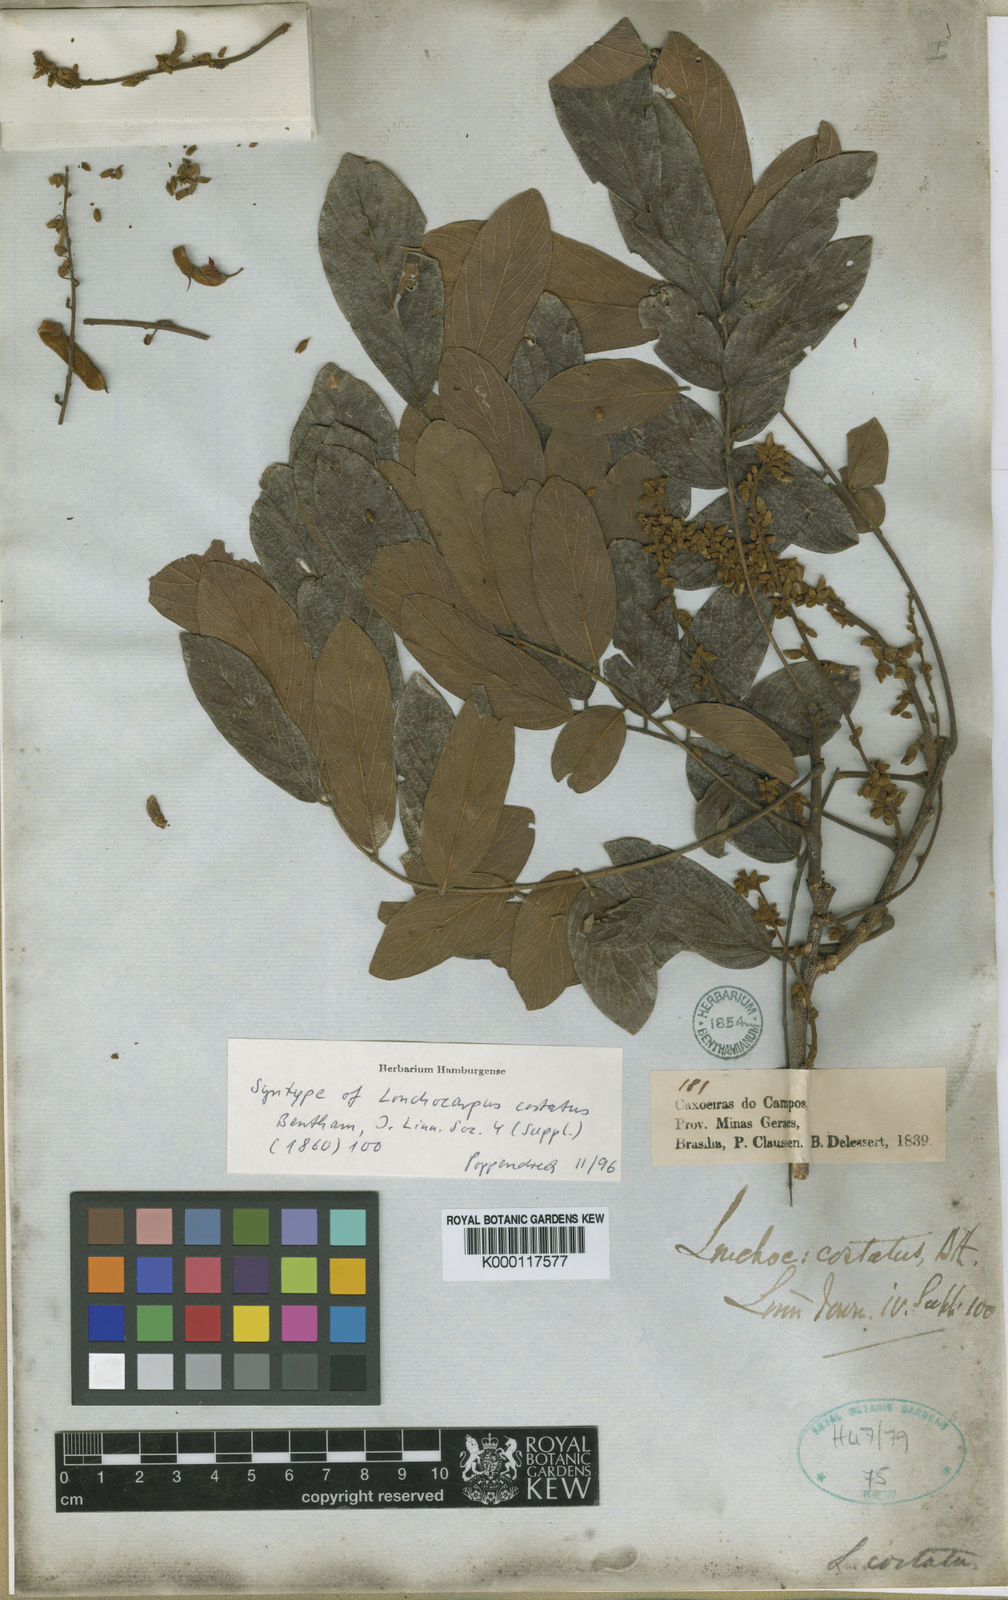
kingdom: Plantae
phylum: Tracheophyta
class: Magnoliopsida
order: Fabales
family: Fabaceae
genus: Deguelia
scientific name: Deguelia costata
